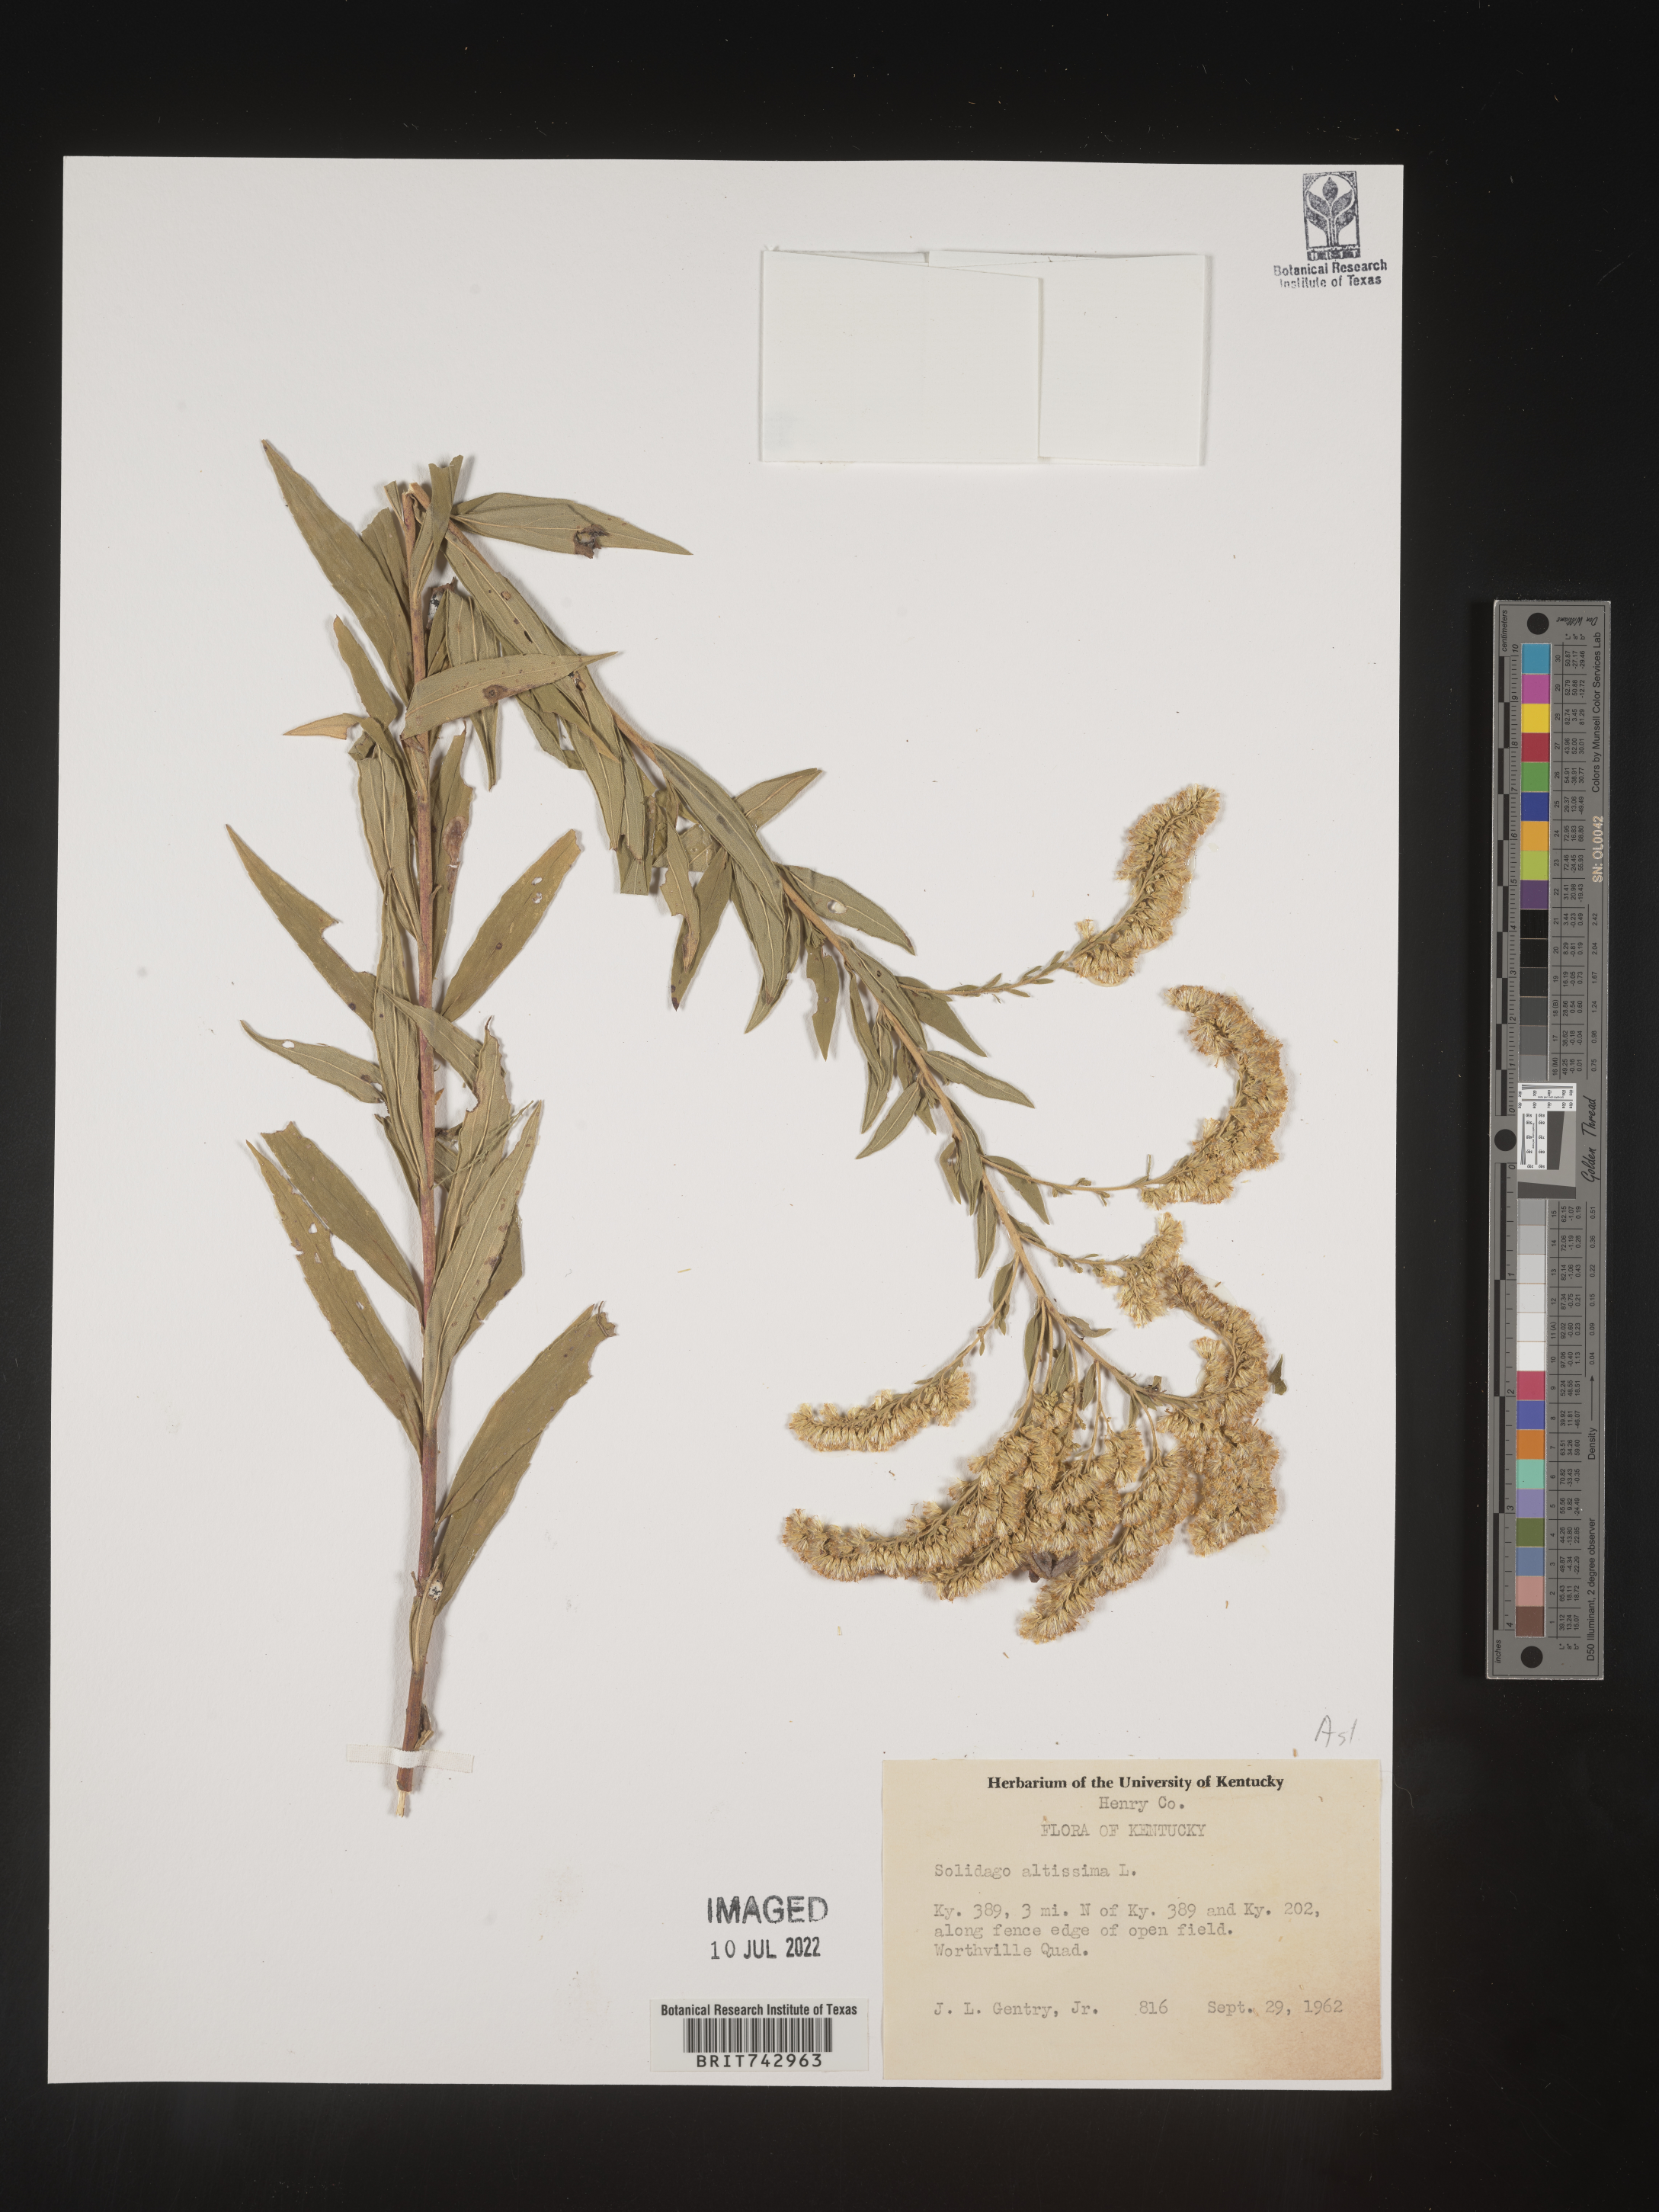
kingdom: Plantae
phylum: Tracheophyta
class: Magnoliopsida
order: Asterales
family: Asteraceae
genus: Solidago
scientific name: Solidago altissima
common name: Late goldenrod
